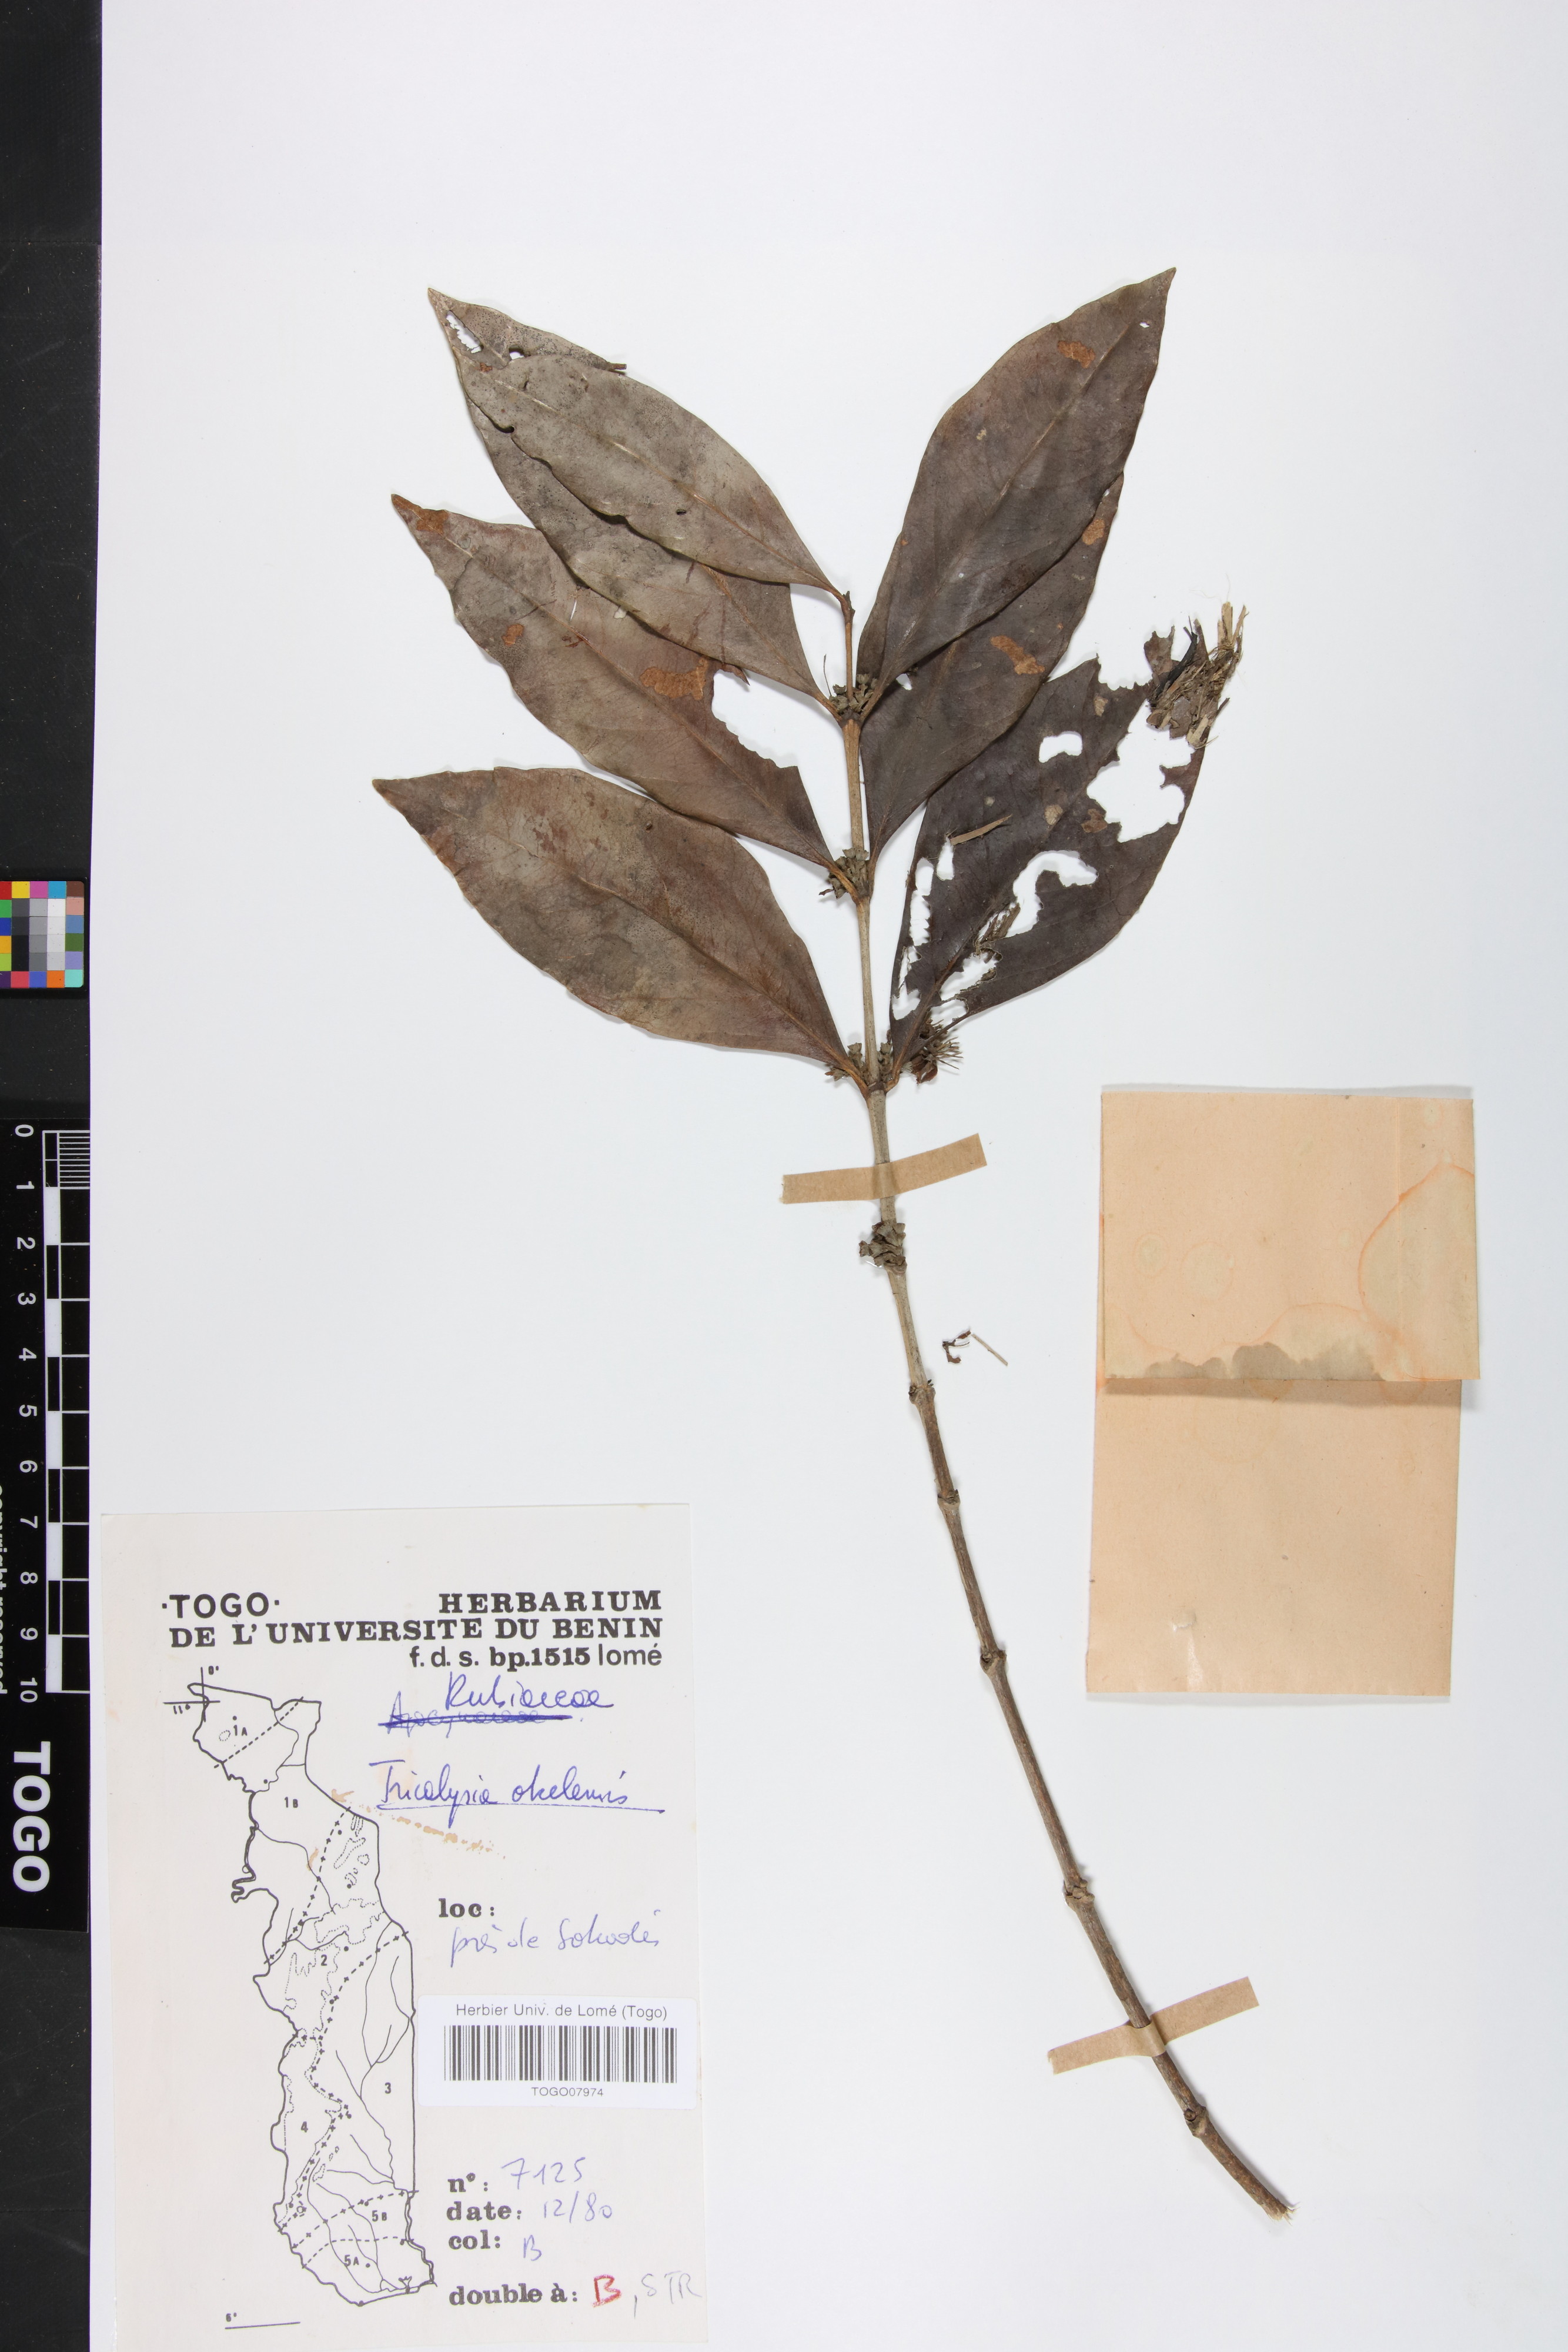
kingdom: Plantae
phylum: Tracheophyta
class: Magnoliopsida
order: Gentianales
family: Rubiaceae
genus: Tricalysia
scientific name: Tricalysia okelensis
